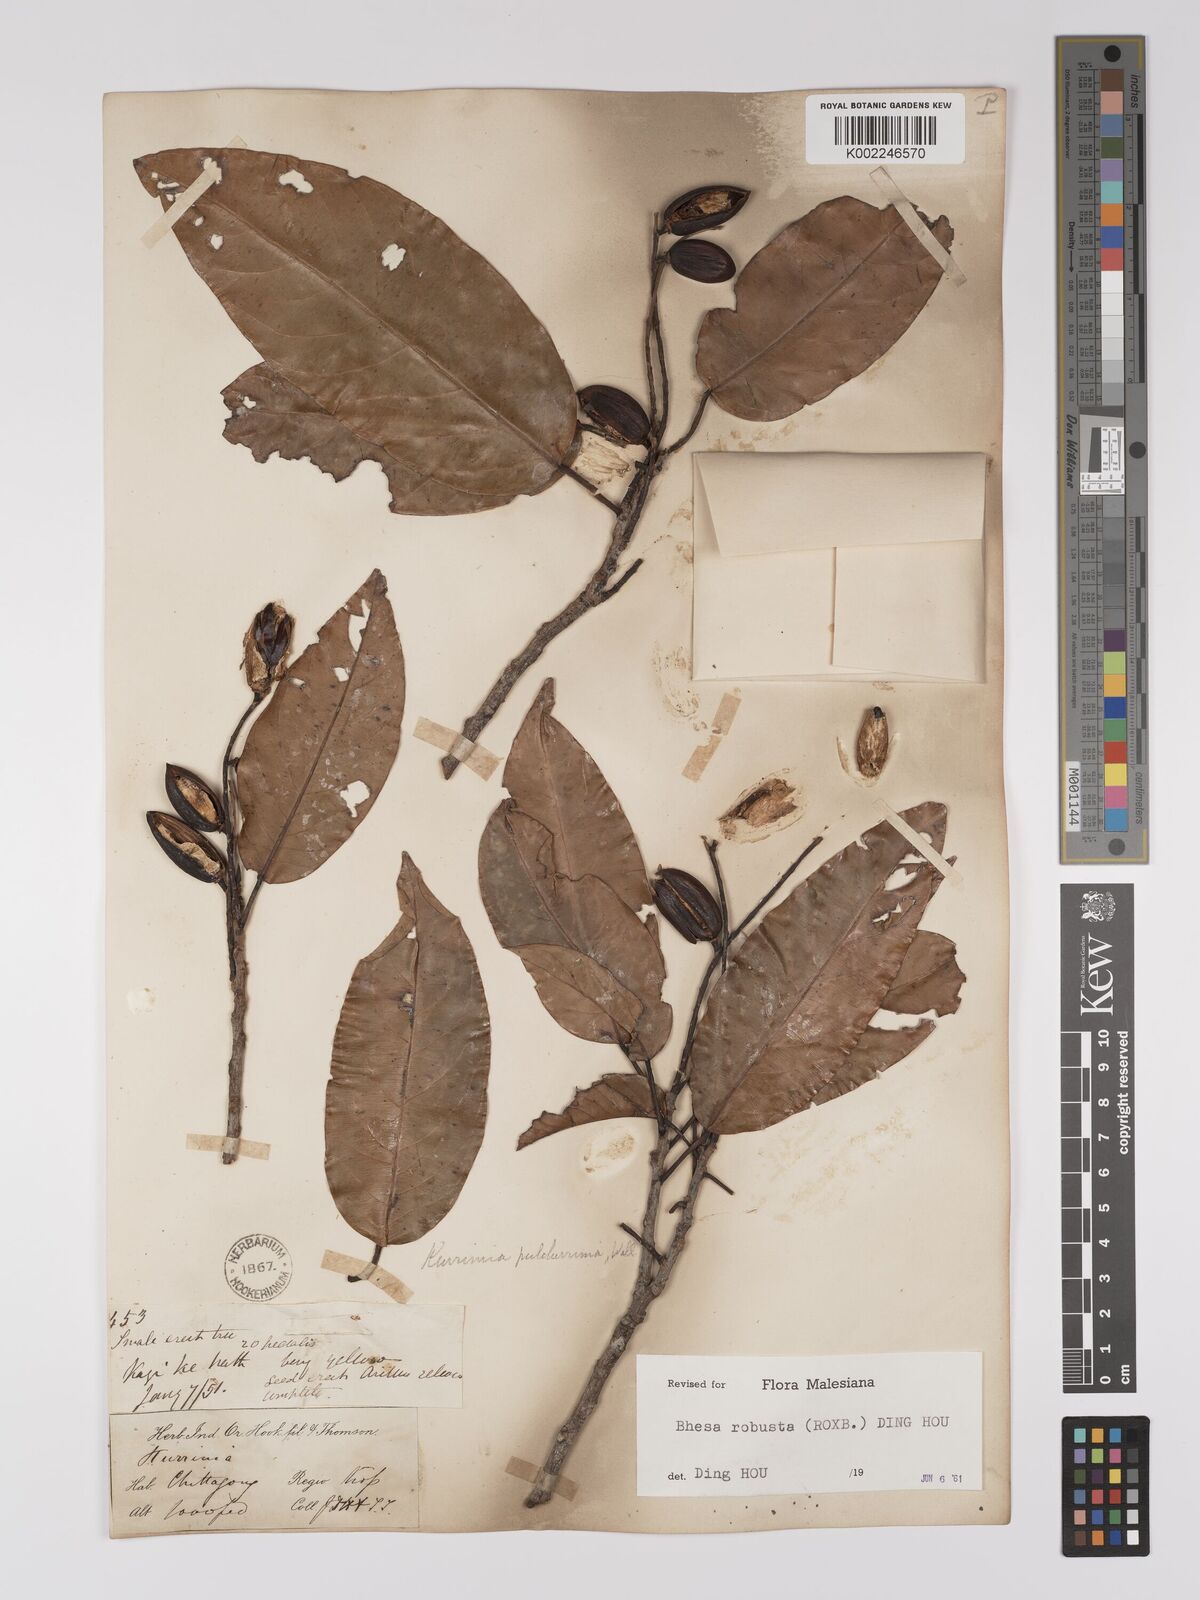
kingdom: Plantae
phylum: Tracheophyta
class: Magnoliopsida
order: Malpighiales
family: Centroplacaceae
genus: Bhesa
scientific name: Bhesa robusta
